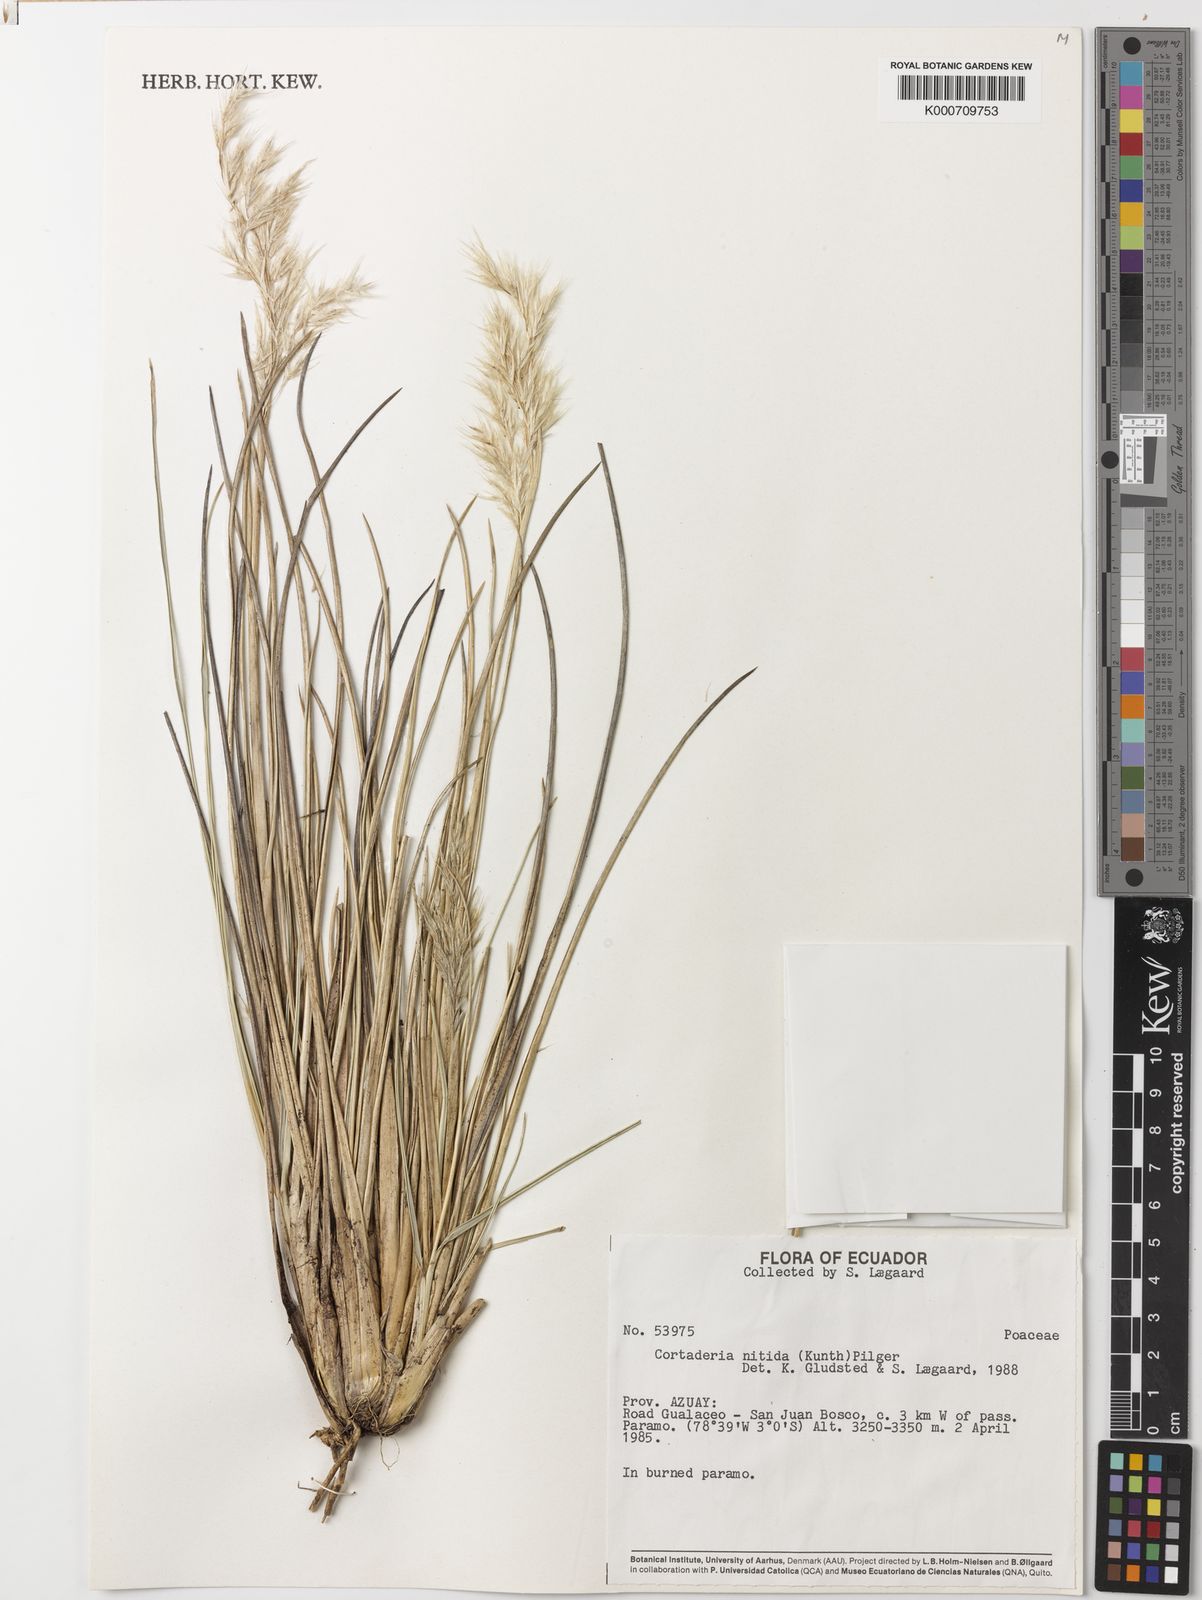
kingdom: Plantae
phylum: Tracheophyta
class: Liliopsida
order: Poales
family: Poaceae
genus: Cortaderia
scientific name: Cortaderia nitida
